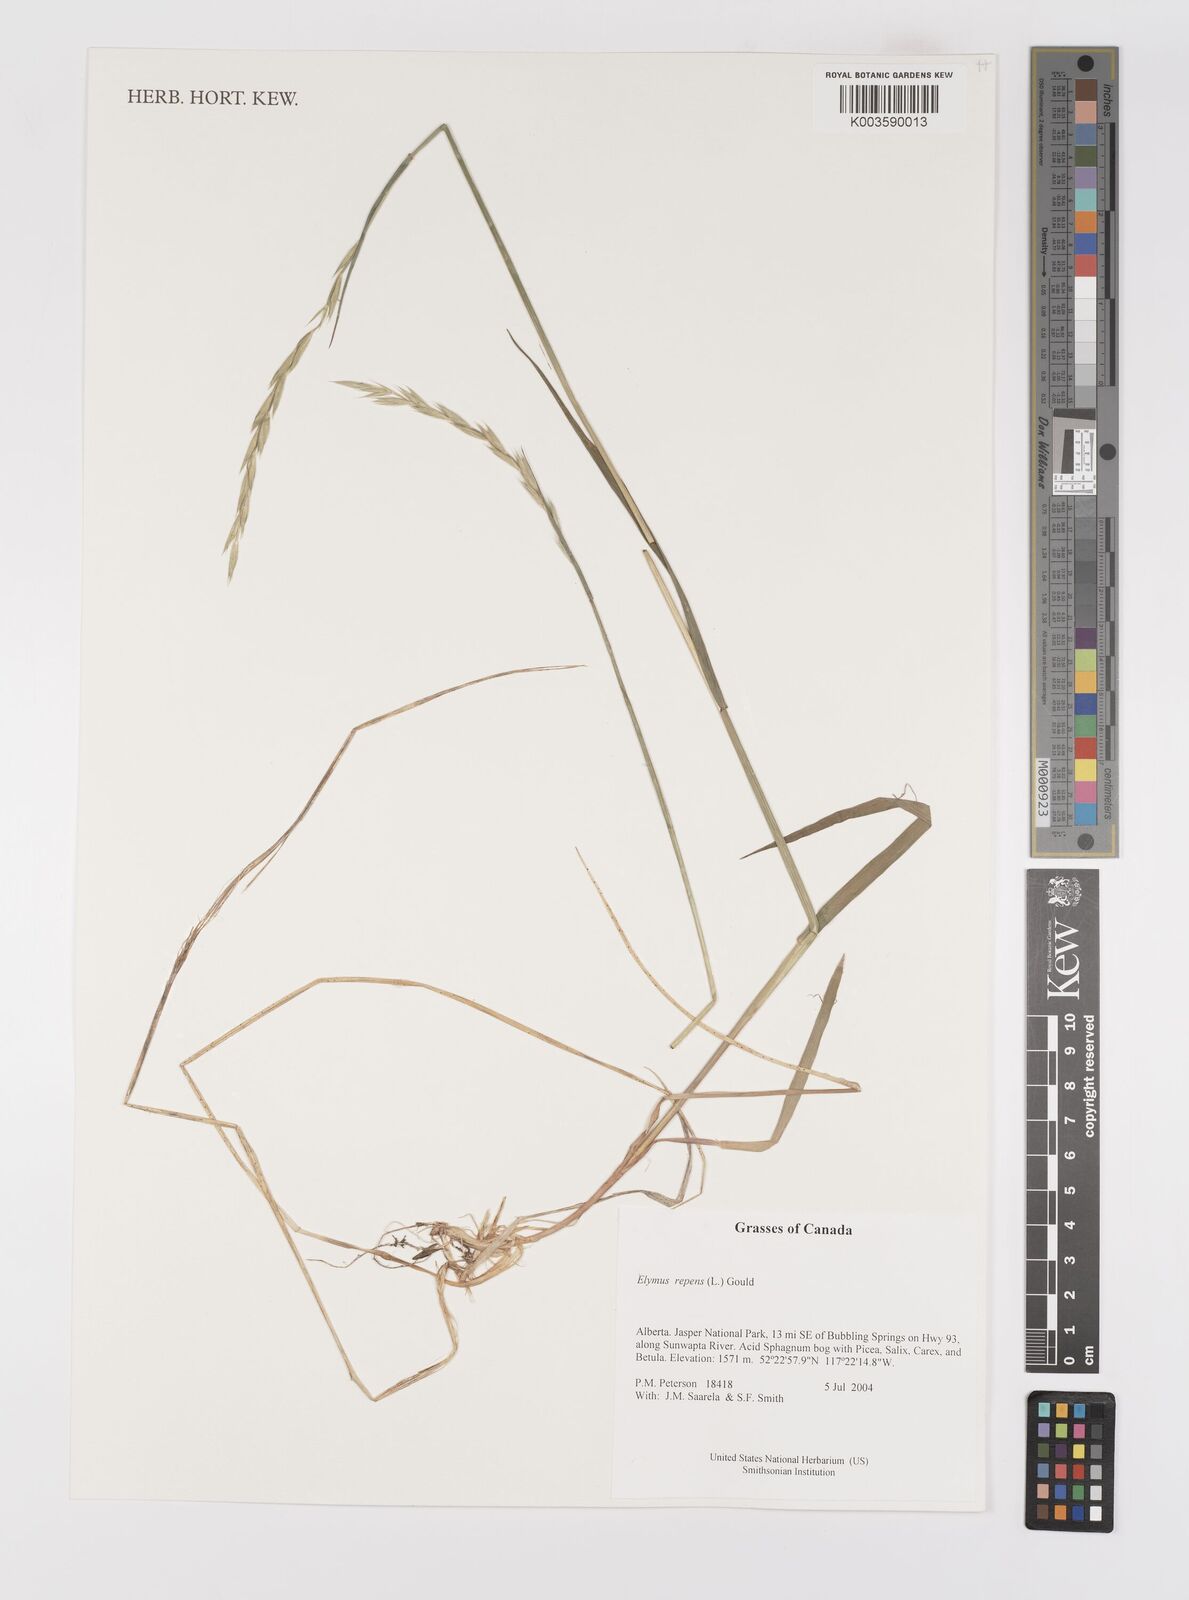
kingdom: Plantae
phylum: Tracheophyta
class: Liliopsida
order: Poales
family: Poaceae
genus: Elymus
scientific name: Elymus repens
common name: Quackgrass
